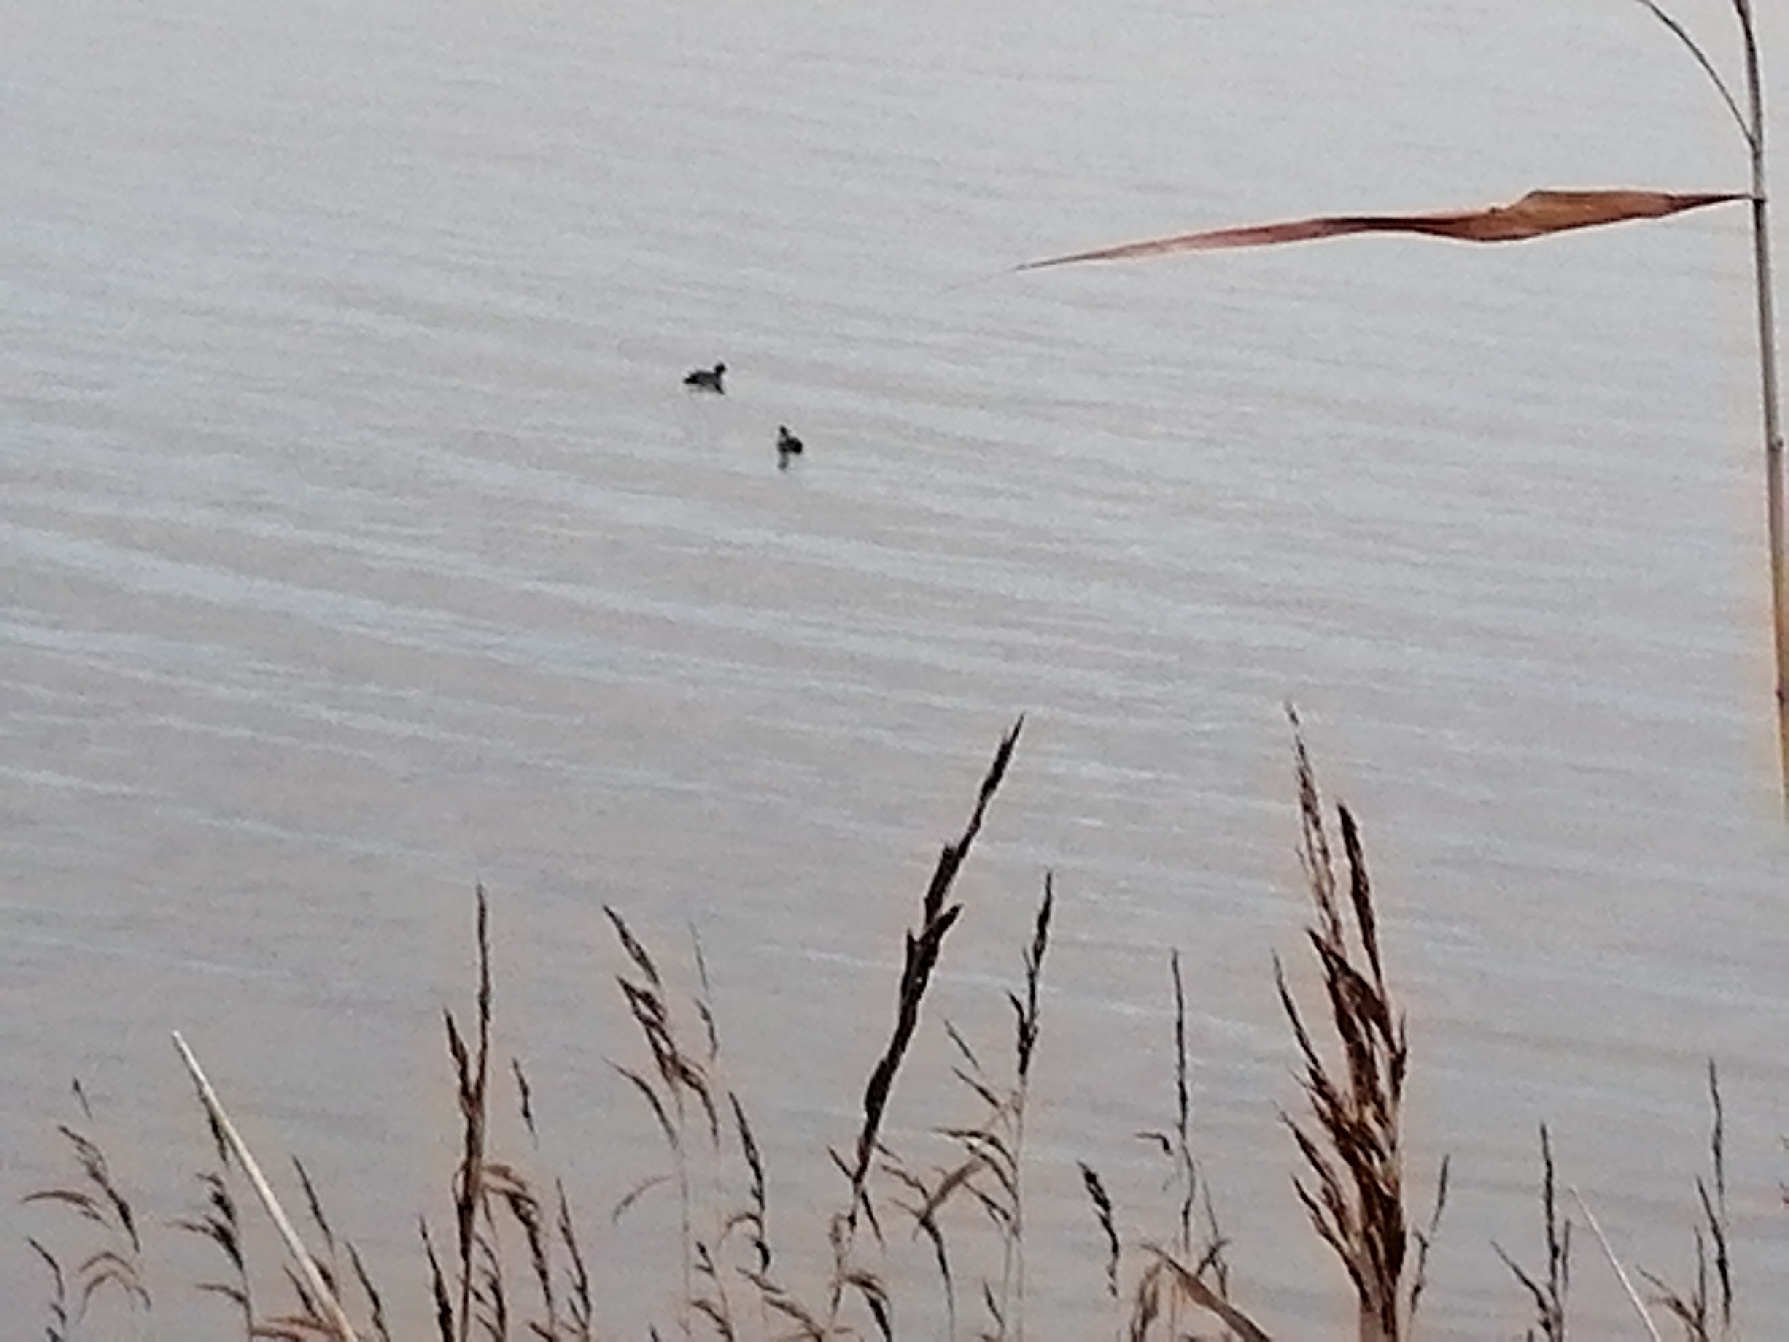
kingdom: Animalia
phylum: Chordata
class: Aves
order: Gruiformes
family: Rallidae
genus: Fulica
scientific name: Fulica atra
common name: Blishøne
